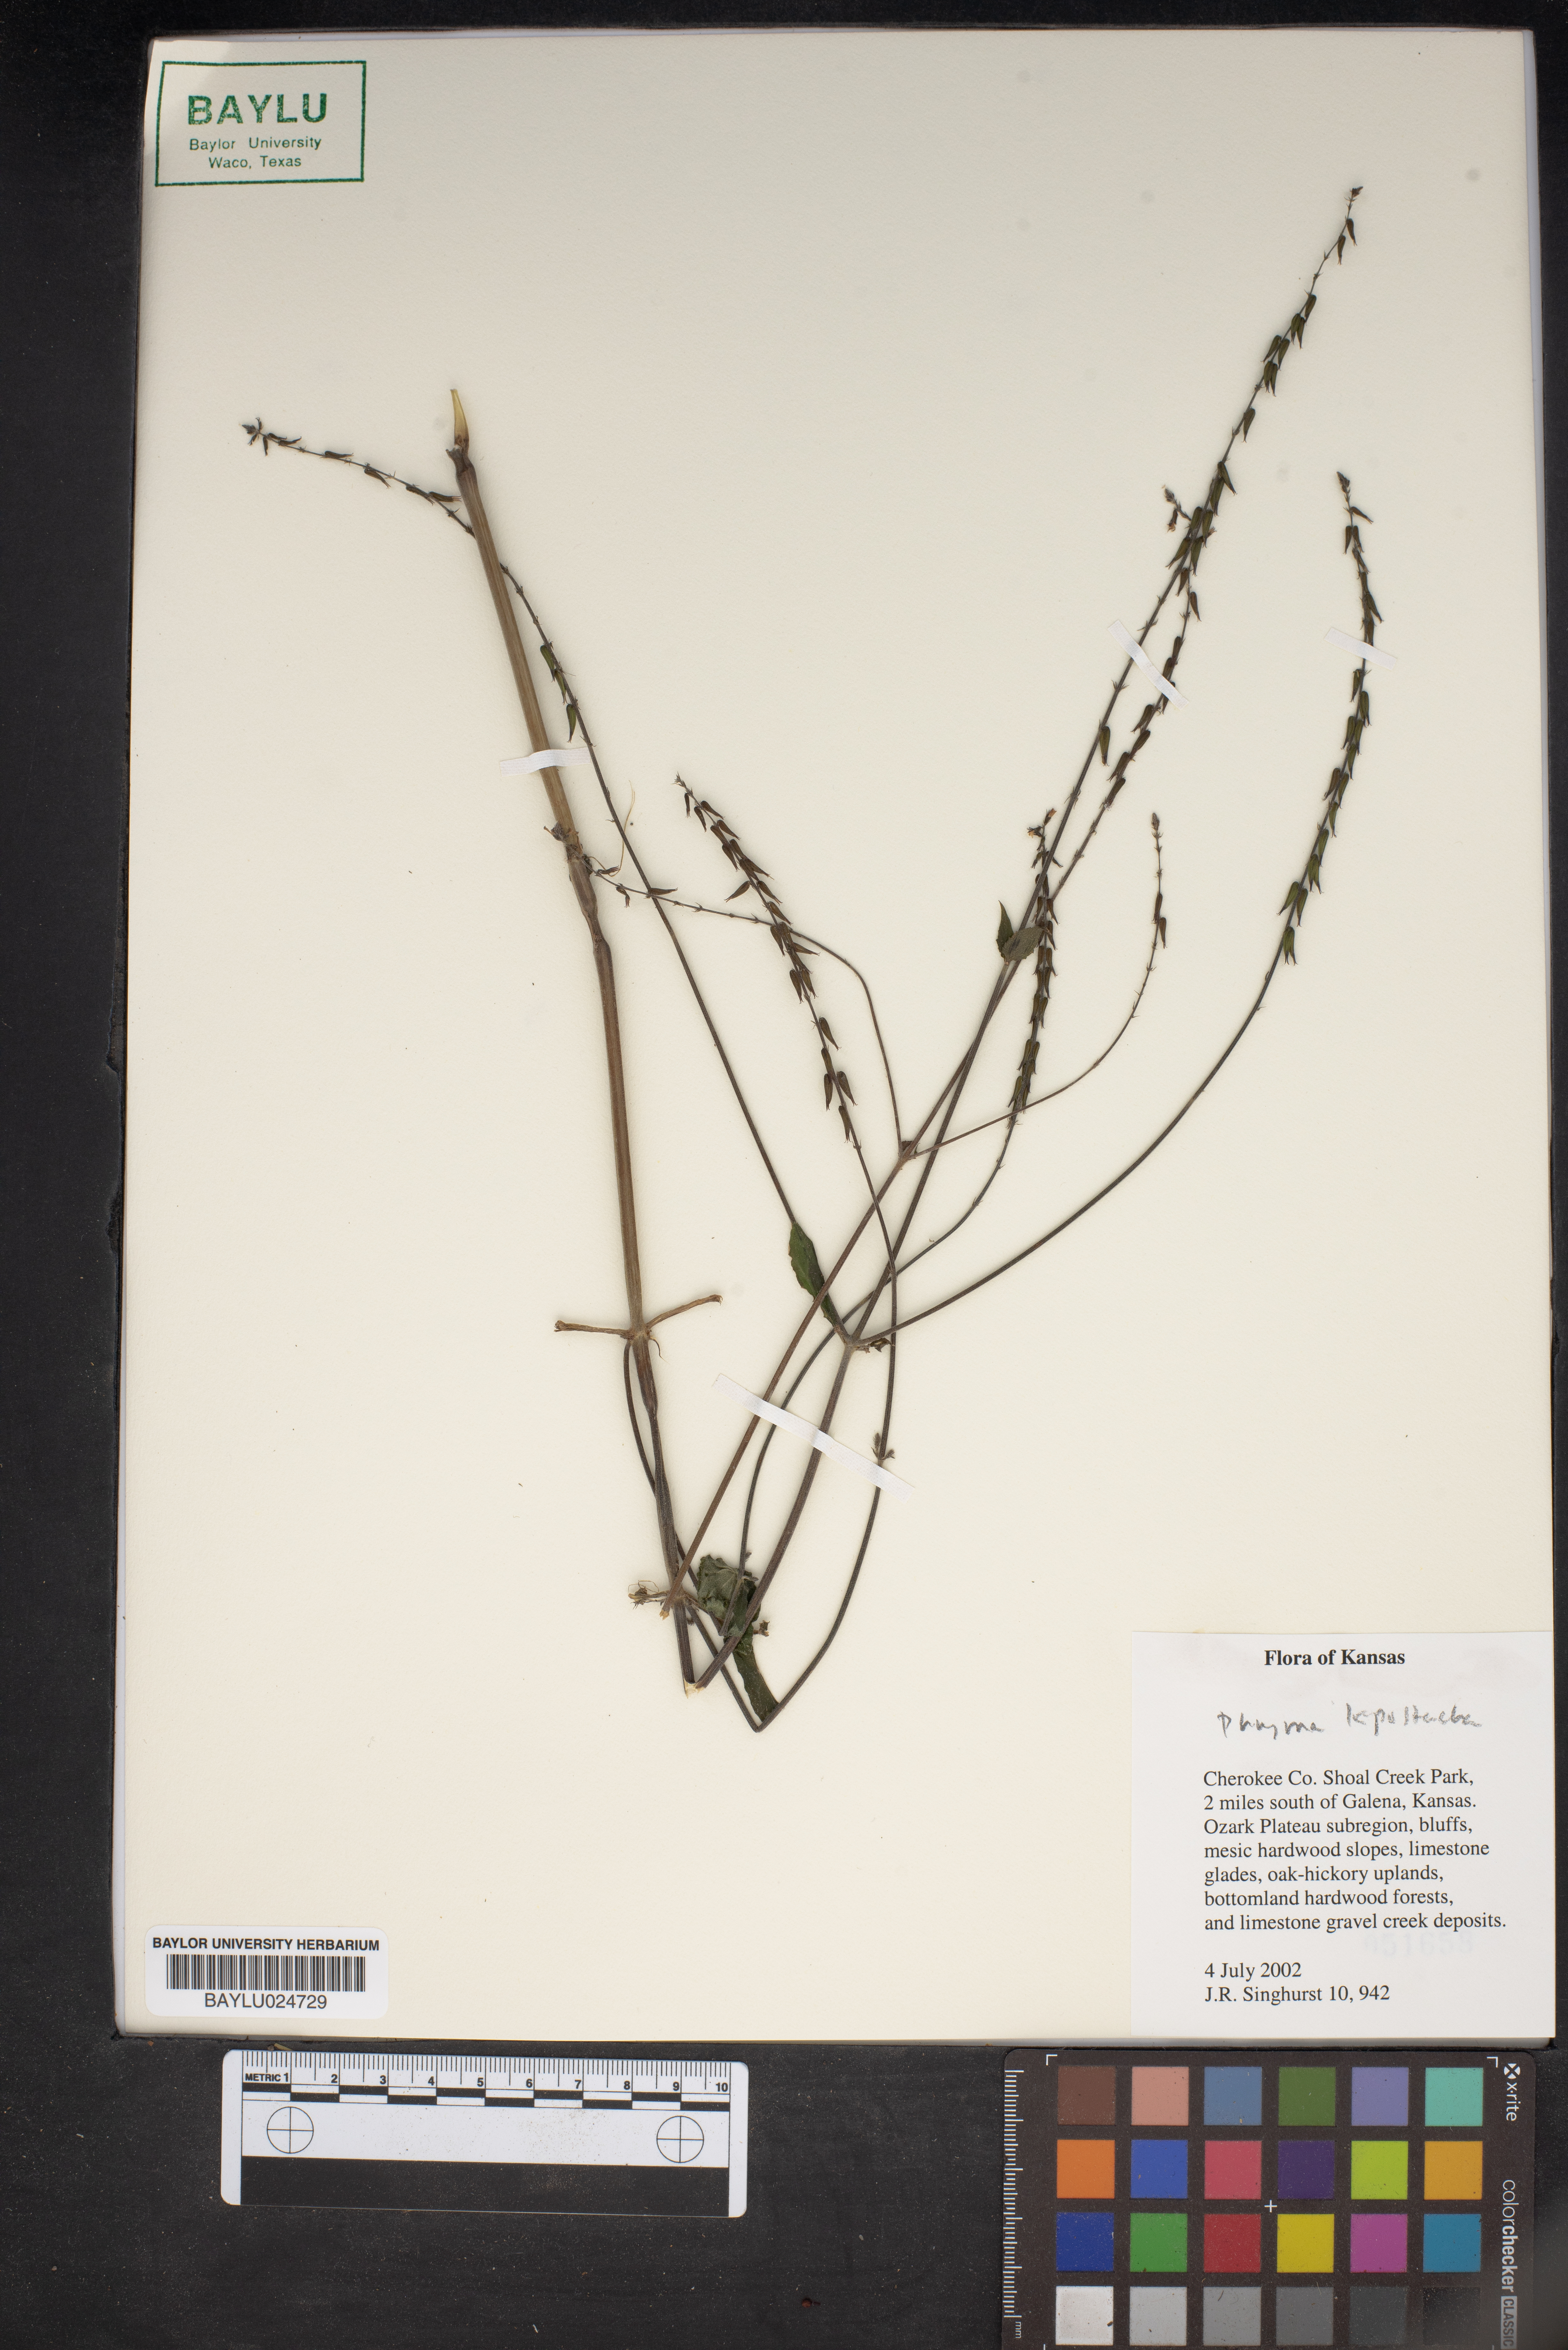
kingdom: Plantae
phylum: Tracheophyta
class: Magnoliopsida
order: Lamiales
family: Phrymaceae
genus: Phryma
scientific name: Phryma leptostachya
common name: American lopseed
